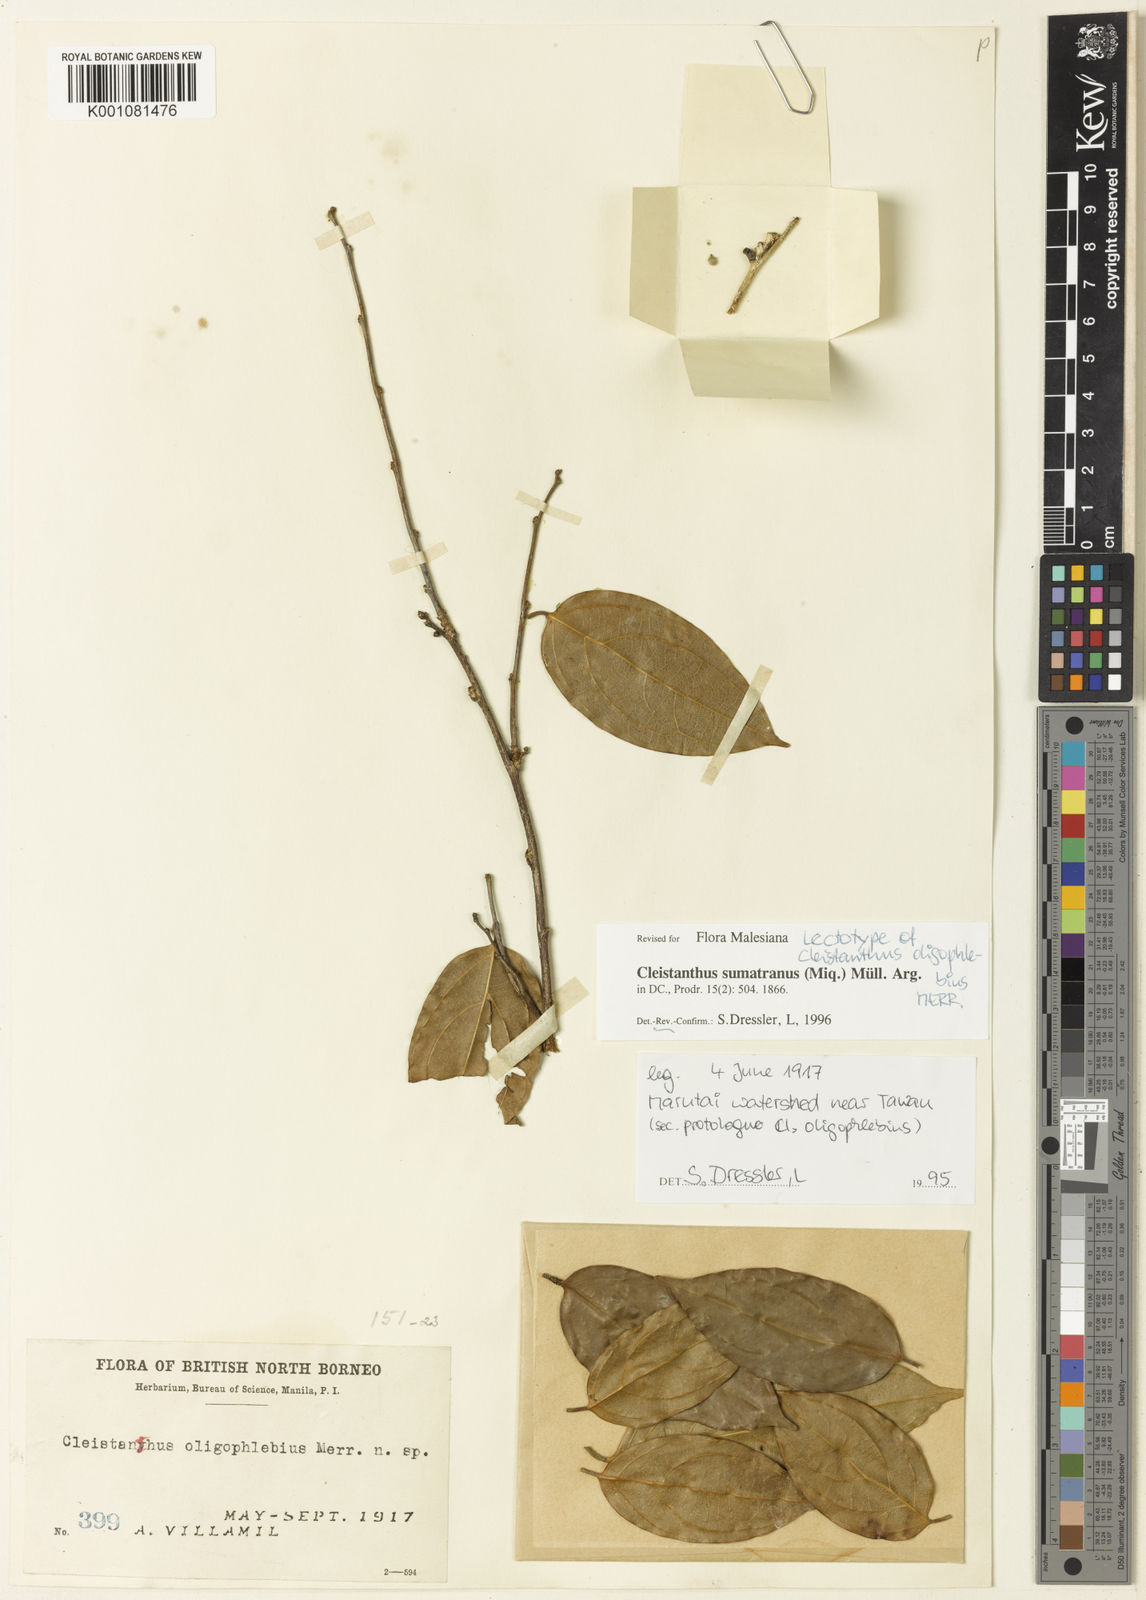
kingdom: Plantae
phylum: Tracheophyta
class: Magnoliopsida
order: Malpighiales
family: Phyllanthaceae
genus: Cleistanthus
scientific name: Cleistanthus
